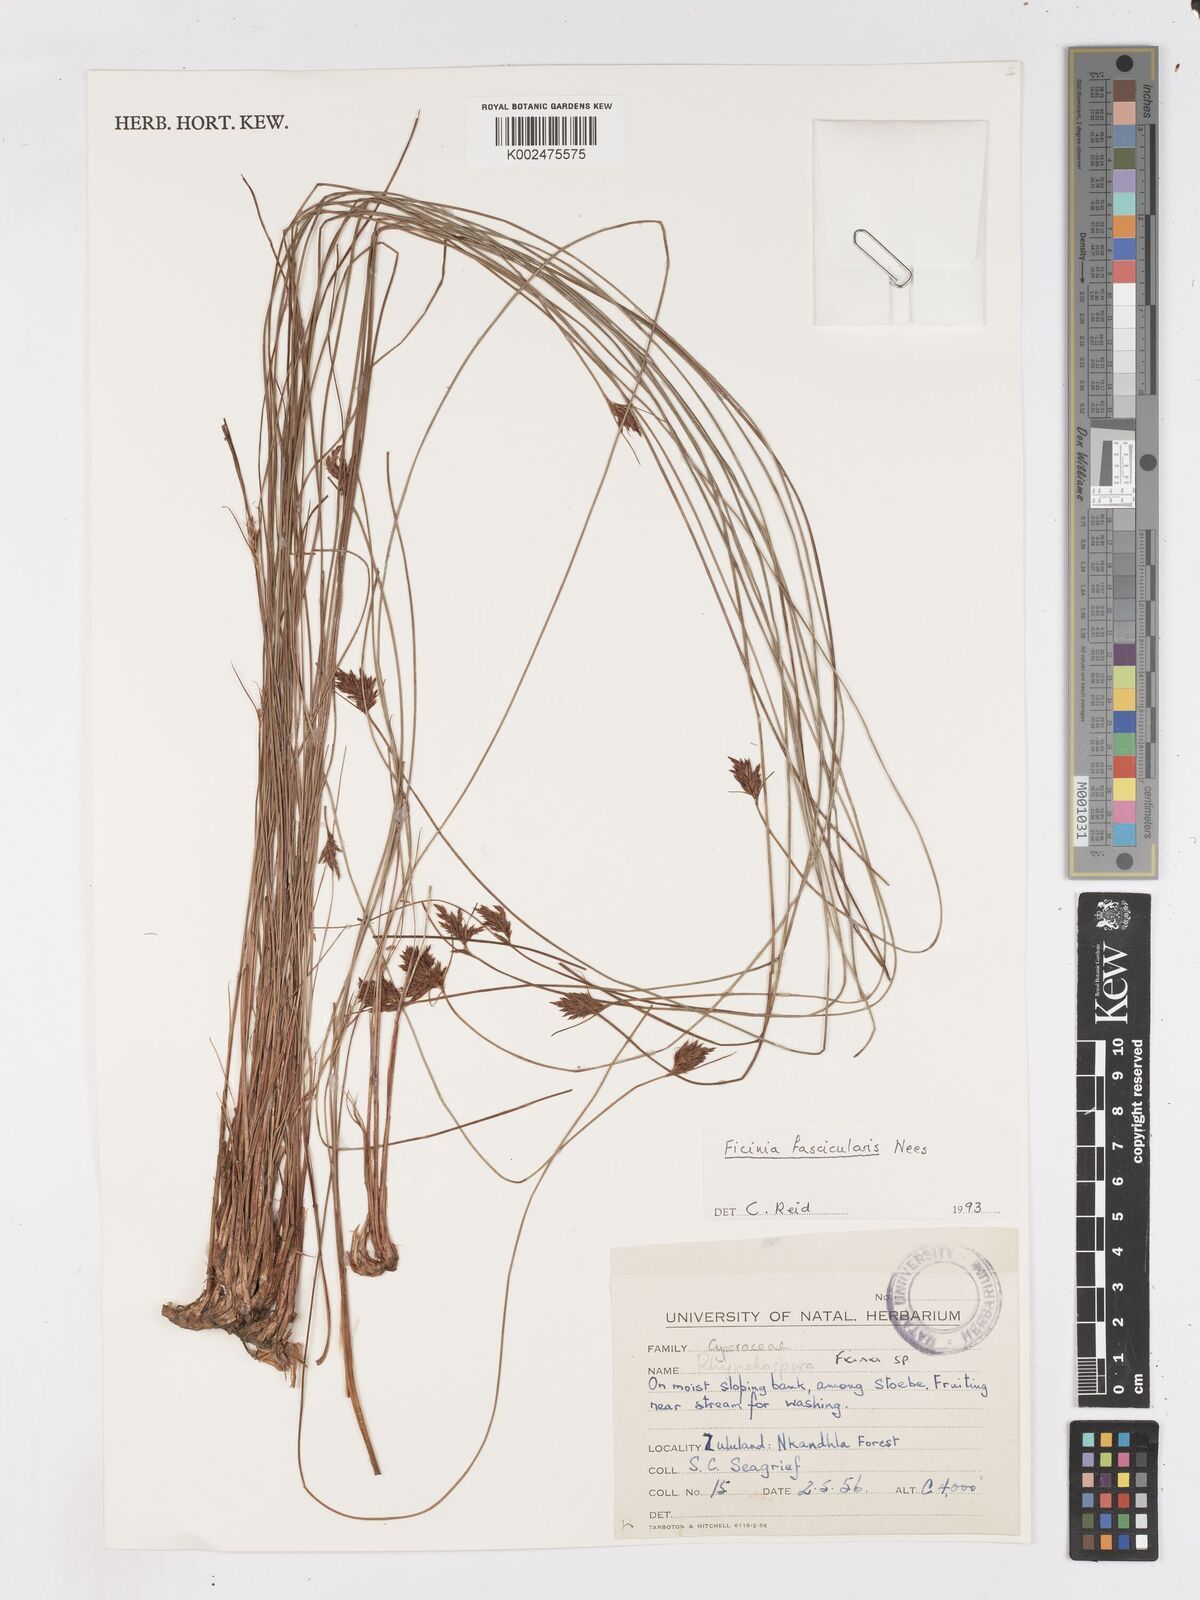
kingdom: Plantae
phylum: Tracheophyta
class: Liliopsida
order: Poales
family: Cyperaceae
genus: Ficinia
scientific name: Ficinia fascicularis
